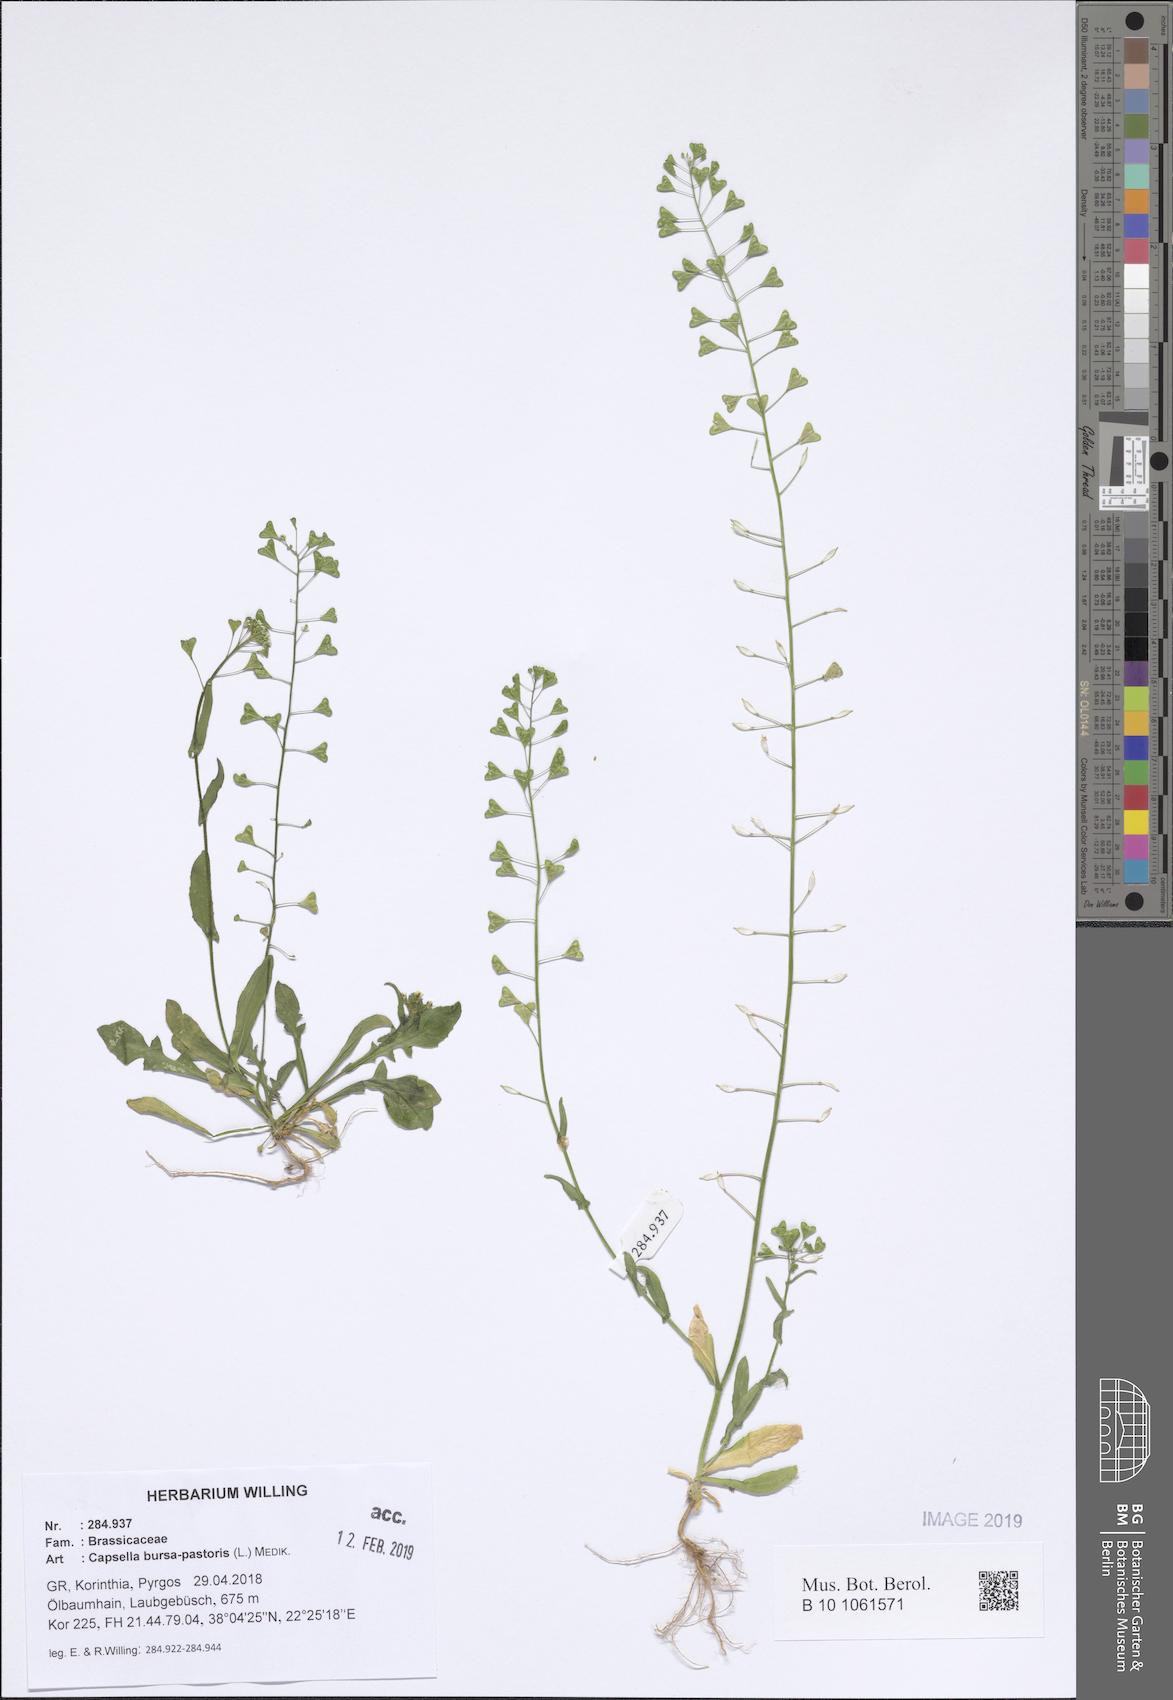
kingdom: Plantae
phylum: Tracheophyta
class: Magnoliopsida
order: Brassicales
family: Brassicaceae
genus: Capsella
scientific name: Capsella bursa-pastoris
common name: Shepherd's purse
